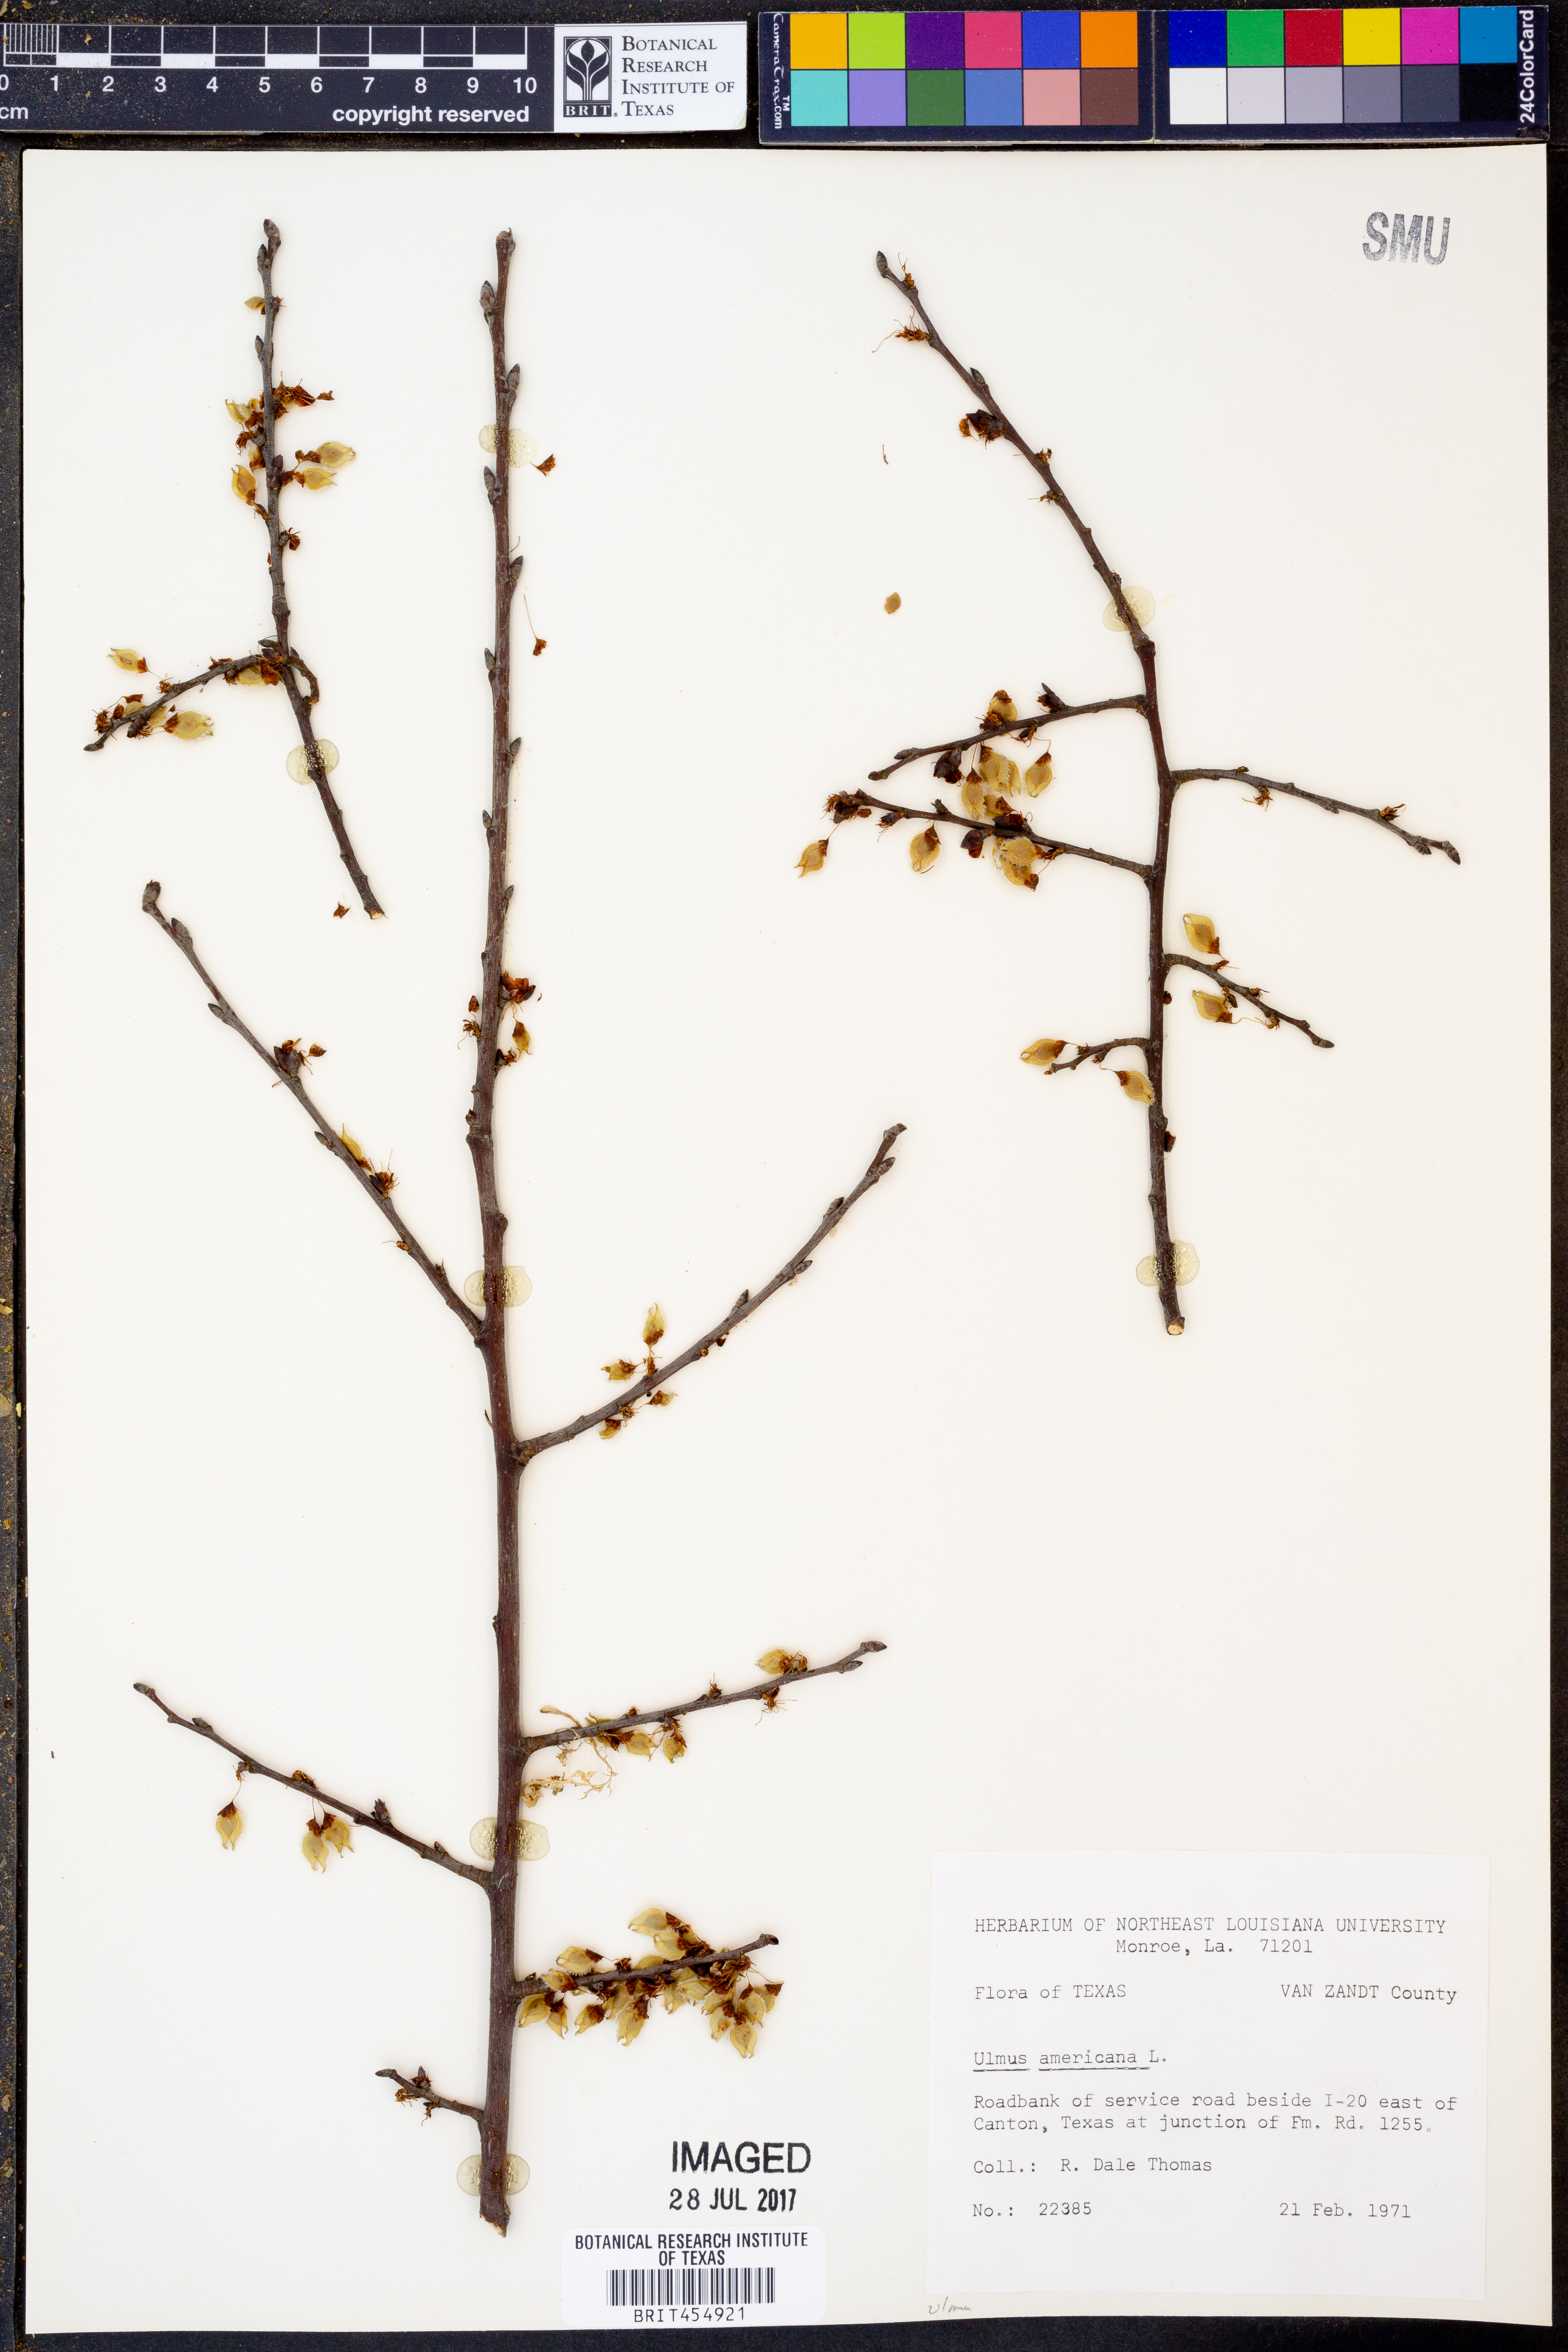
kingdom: Plantae
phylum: Tracheophyta
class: Magnoliopsida
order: Rosales
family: Ulmaceae
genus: Ulmus
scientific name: Ulmus americana
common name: American elm
